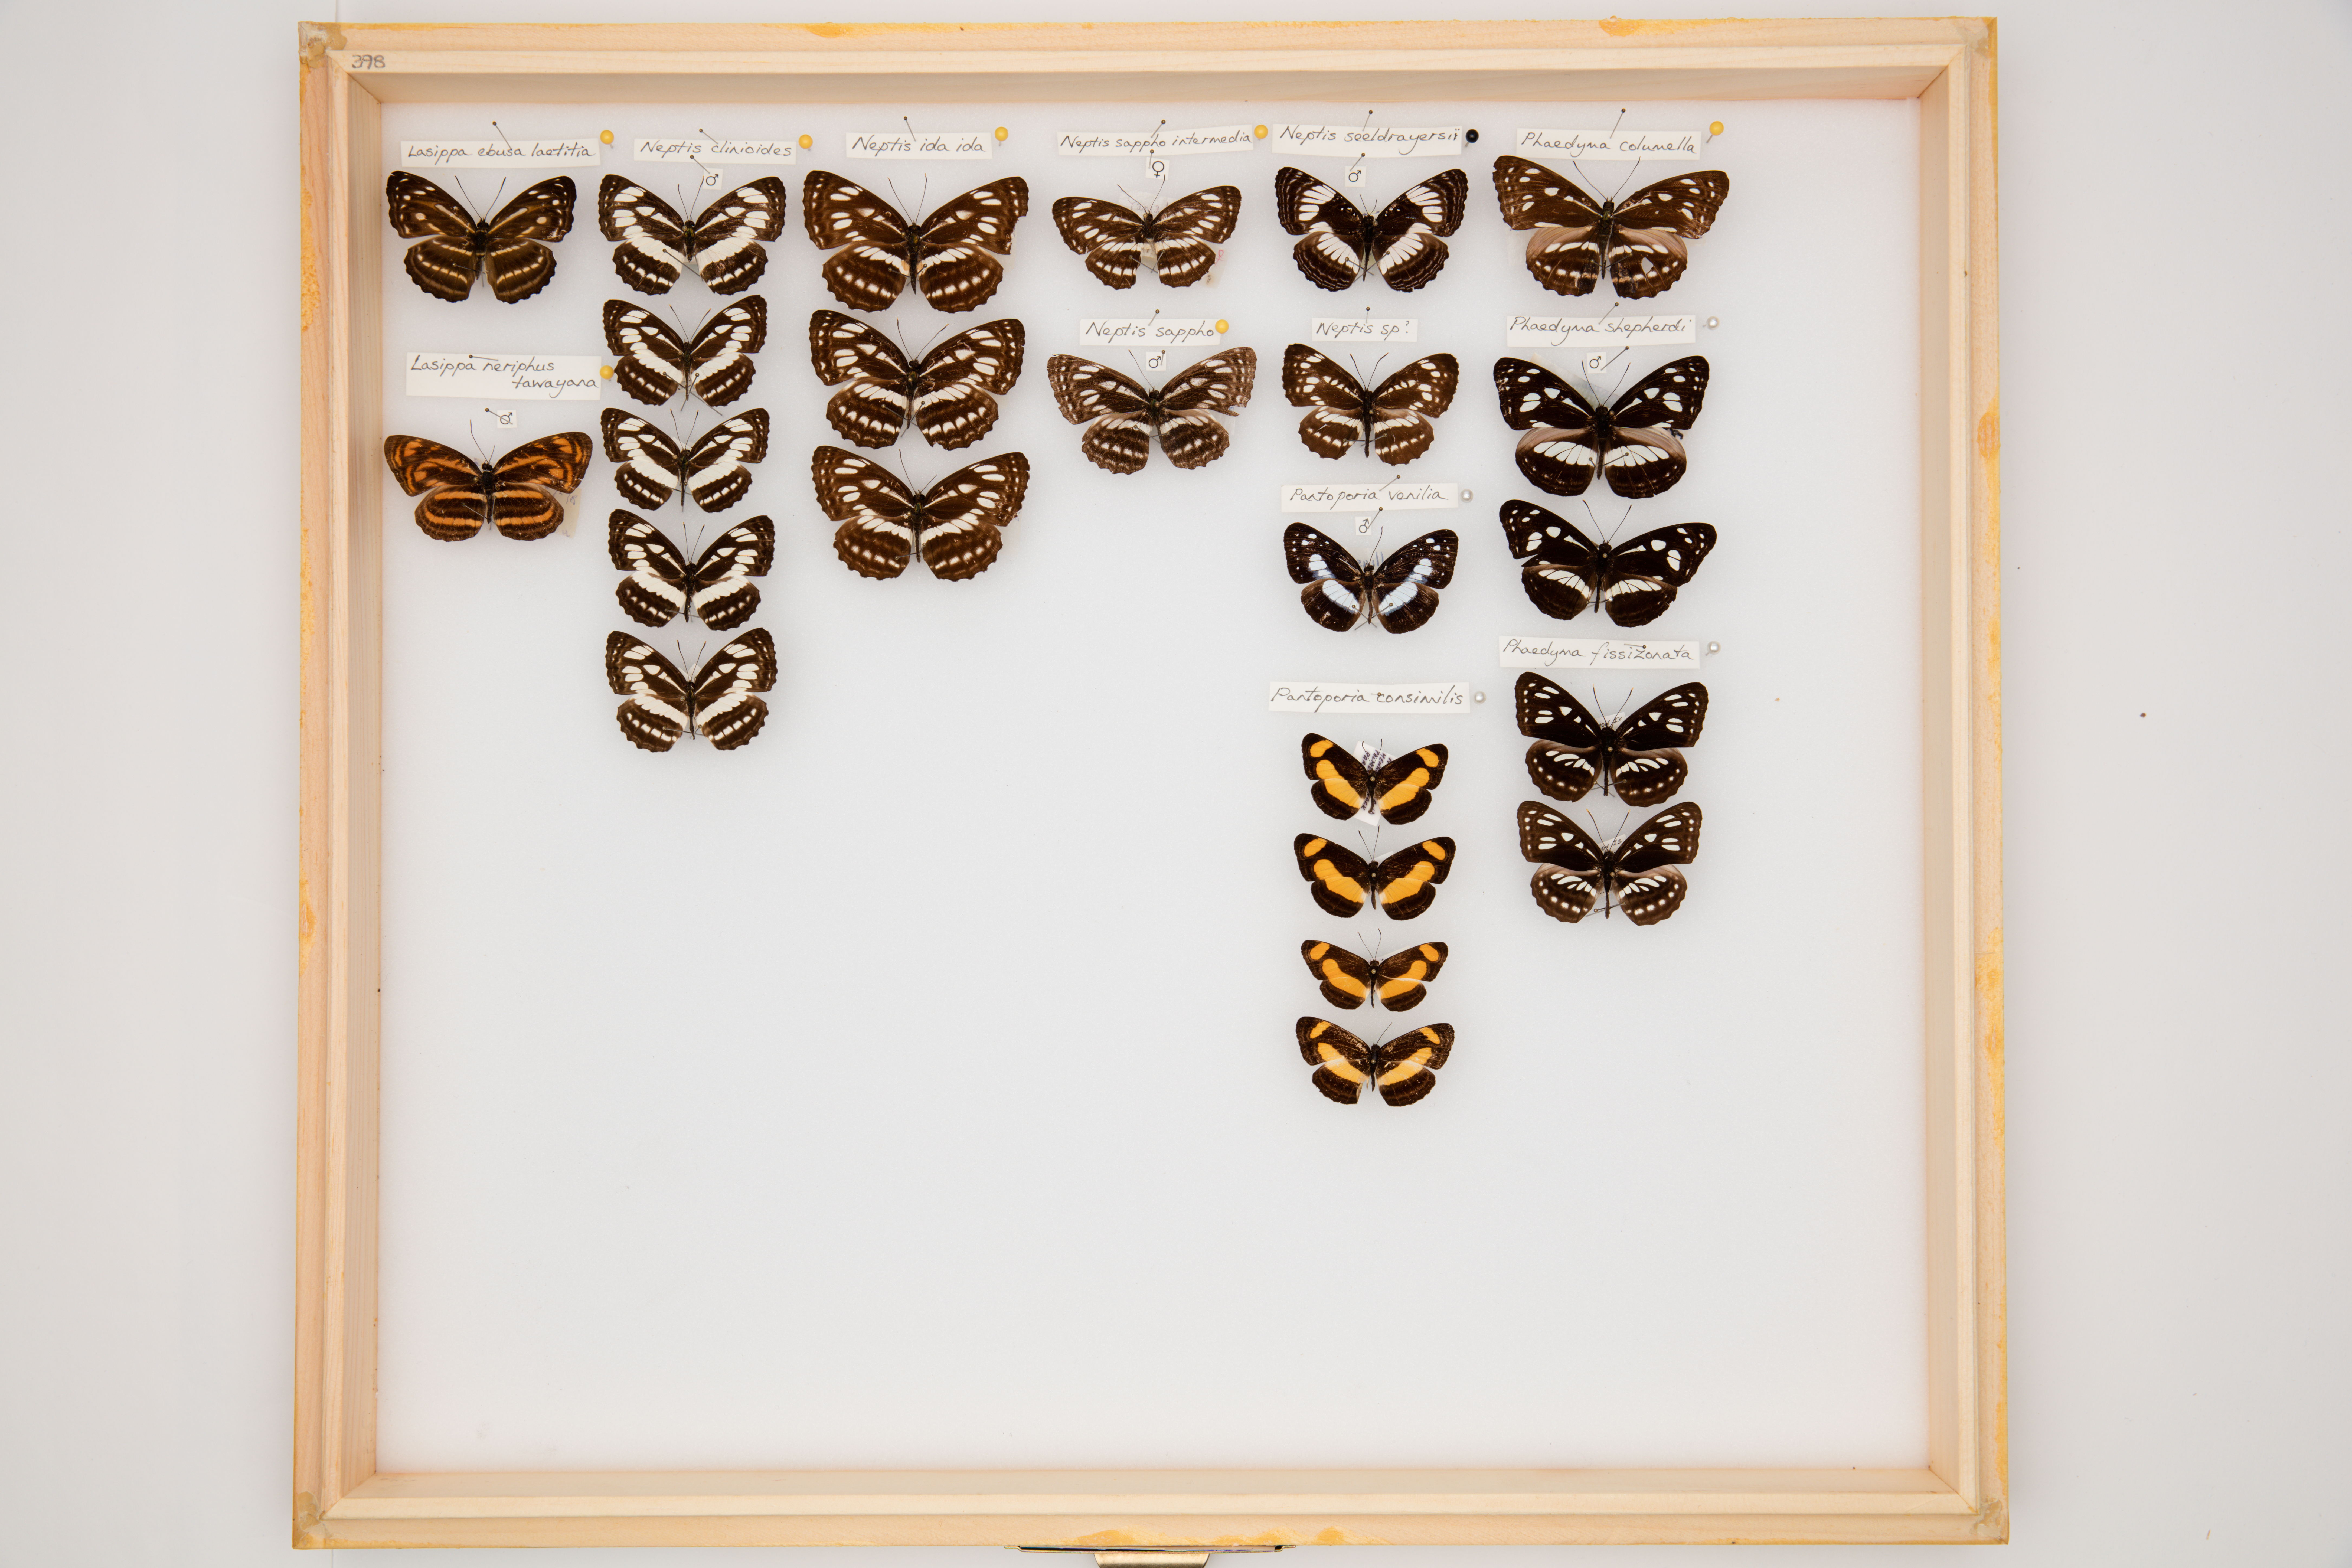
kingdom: Animalia
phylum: Arthropoda
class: Insecta
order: Lepidoptera
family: Nymphalidae
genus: Pantoporia
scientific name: Pantoporia consimilis
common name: Orange plane
